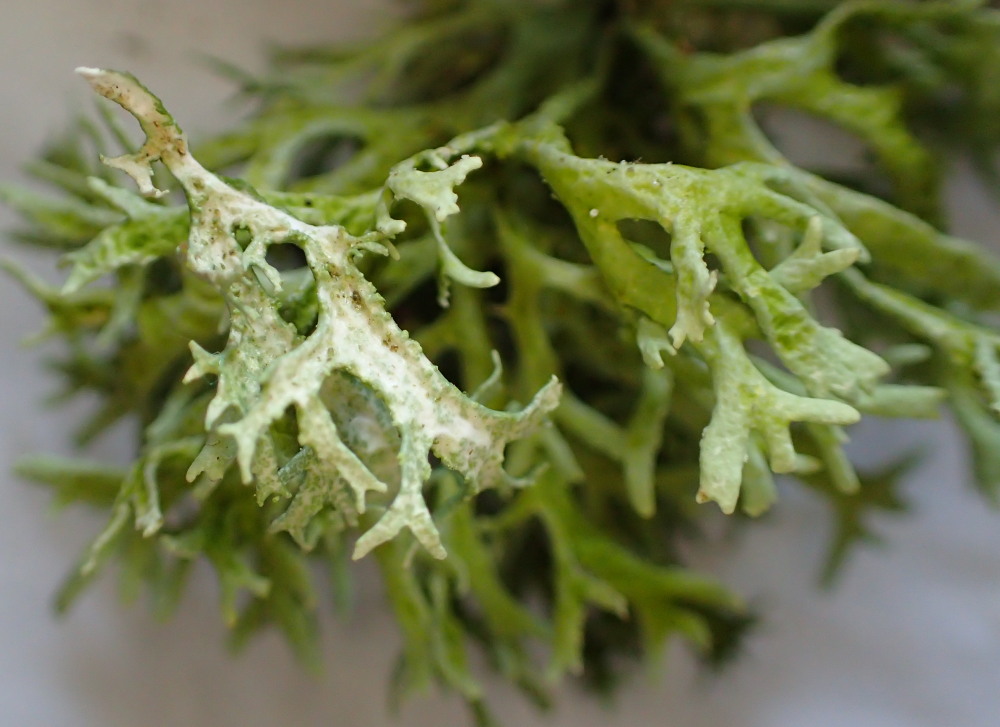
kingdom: Fungi
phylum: Ascomycota
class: Lecanoromycetes
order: Lecanorales
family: Parmeliaceae
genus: Evernia
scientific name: Evernia prunastri
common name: almindelig slåenlav
